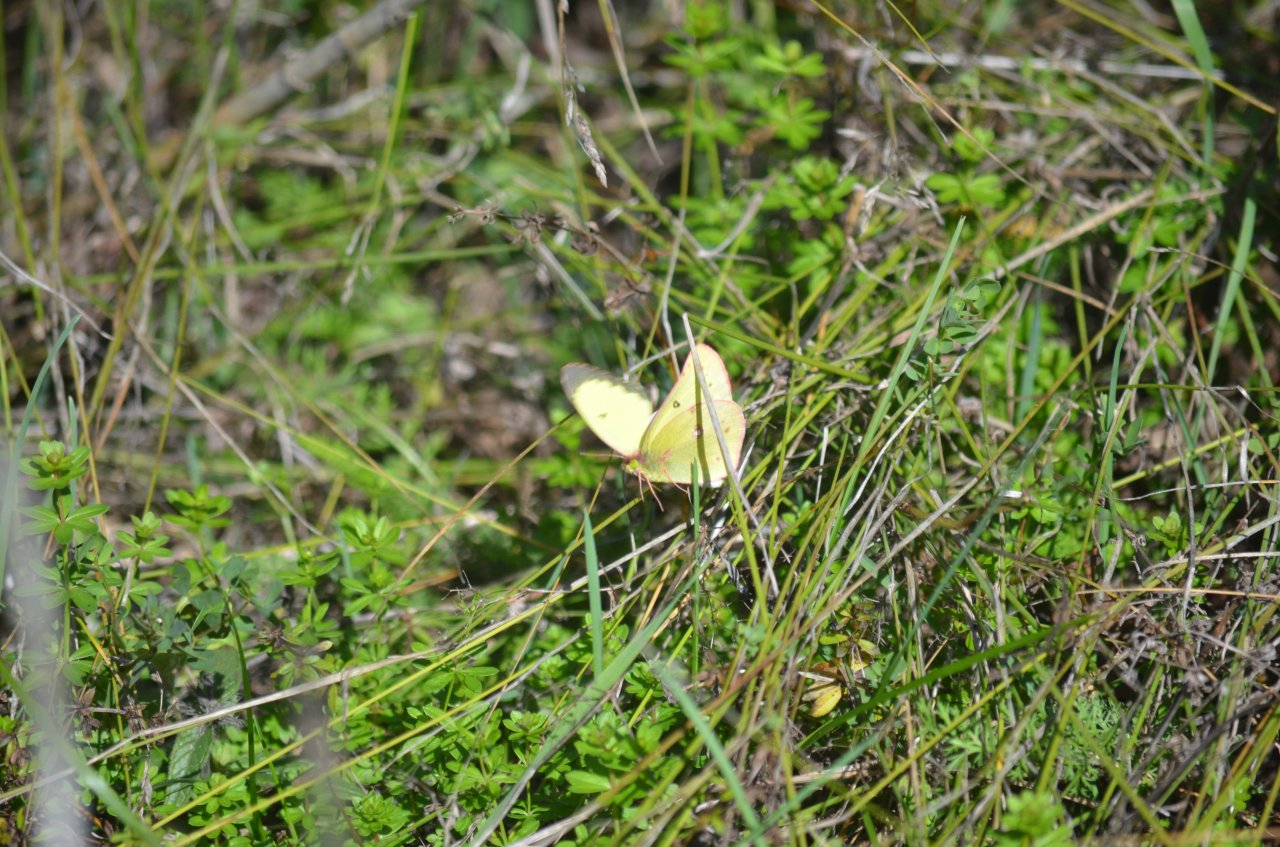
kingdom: Animalia
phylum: Arthropoda
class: Insecta
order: Lepidoptera
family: Pieridae
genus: Colias
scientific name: Colias philodice
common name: Clouded Sulphur
